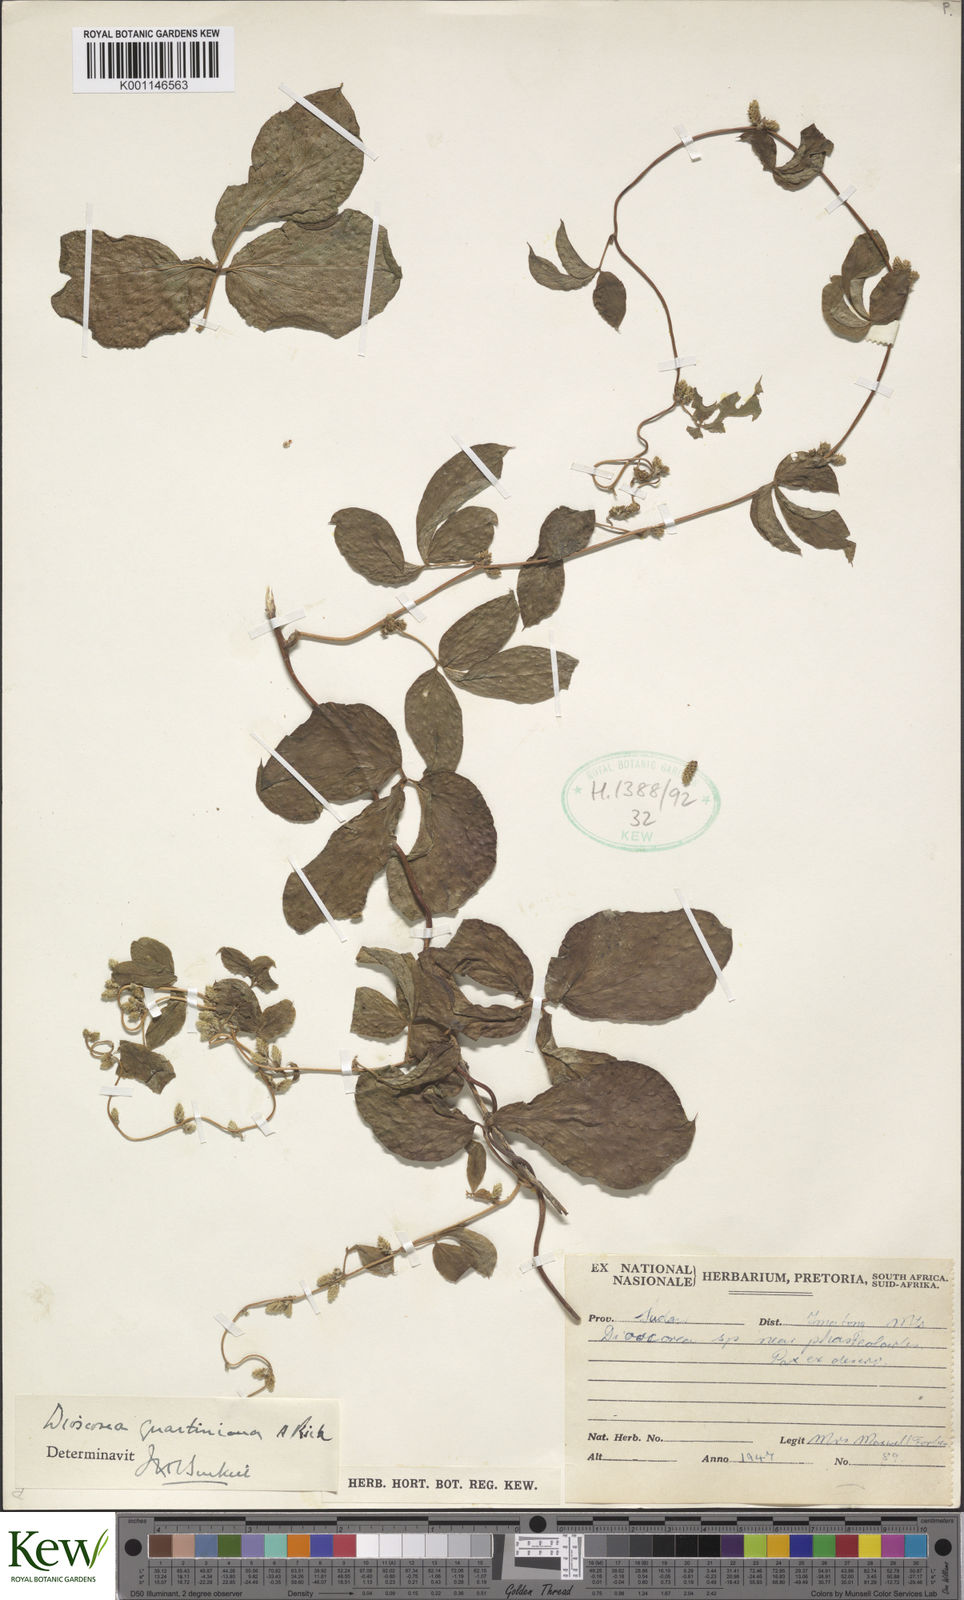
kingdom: Plantae
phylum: Tracheophyta
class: Liliopsida
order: Dioscoreales
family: Dioscoreaceae
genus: Dioscorea
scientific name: Dioscorea quartiniana
